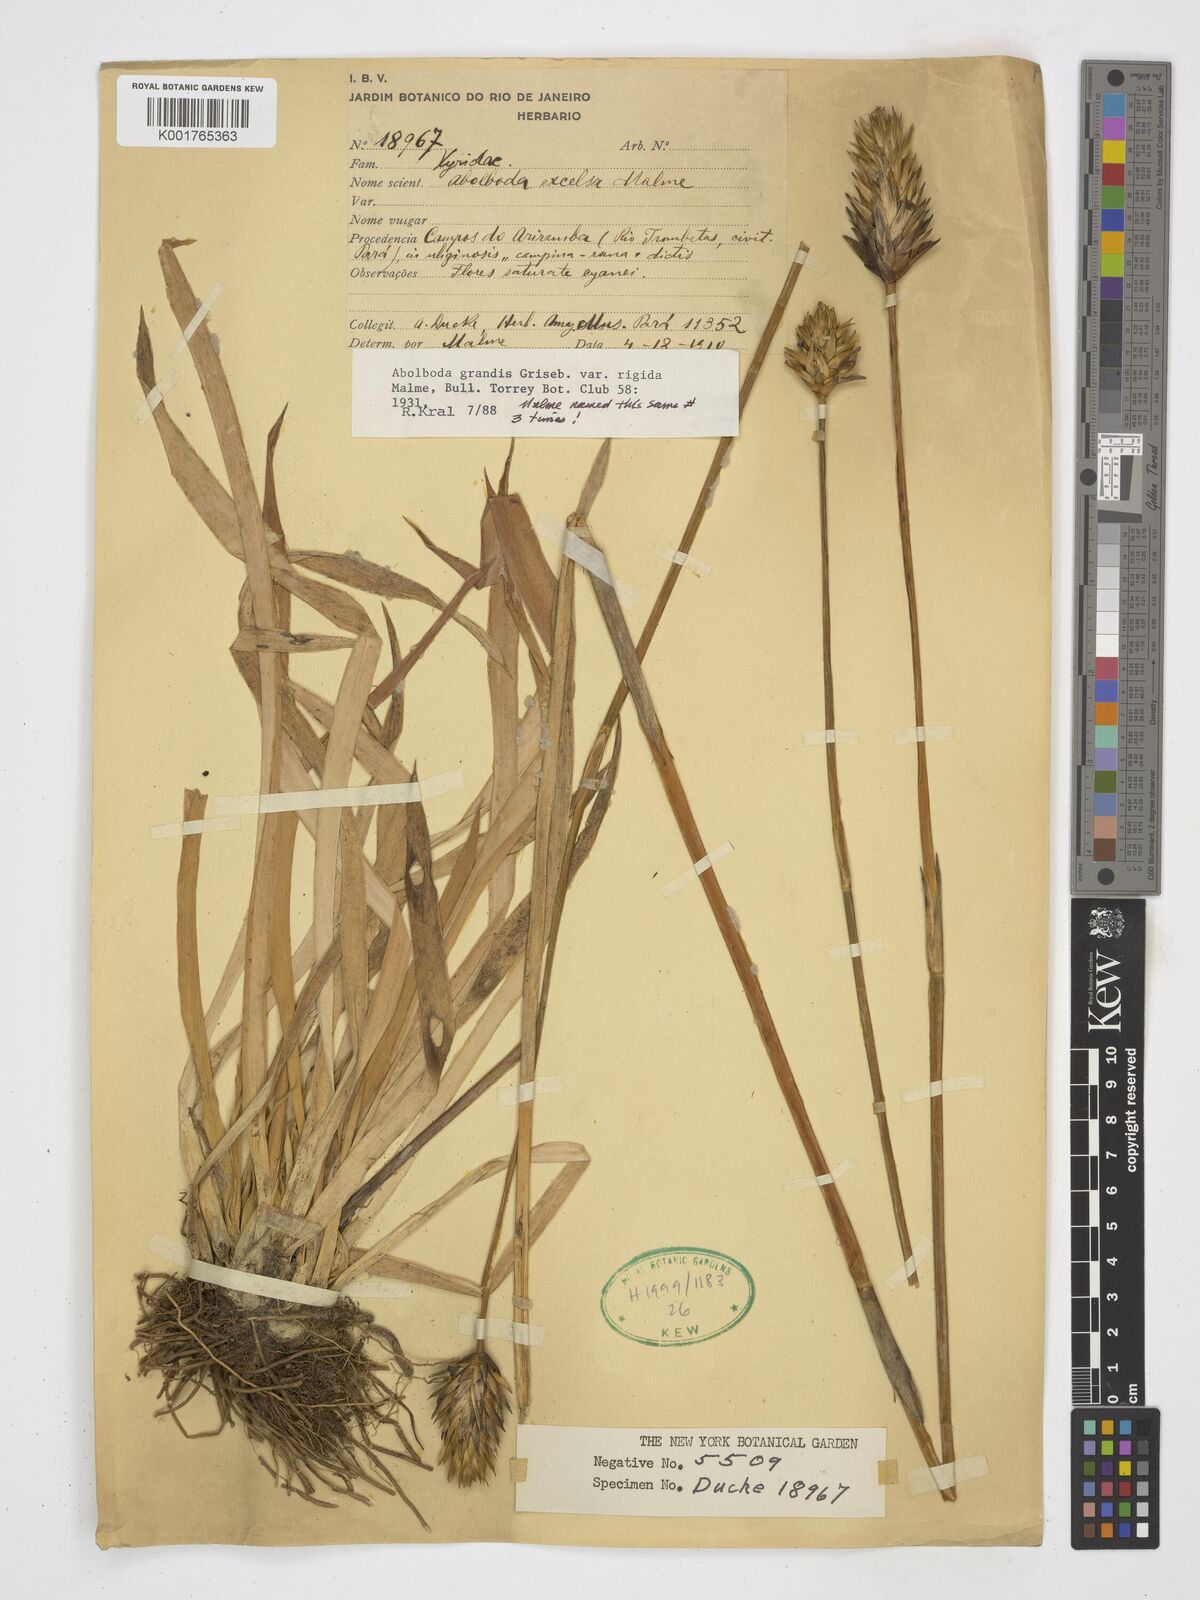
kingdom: Plantae
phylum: Tracheophyta
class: Liliopsida
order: Poales
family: Xyridaceae
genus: Abolboda
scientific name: Abolboda grandis
